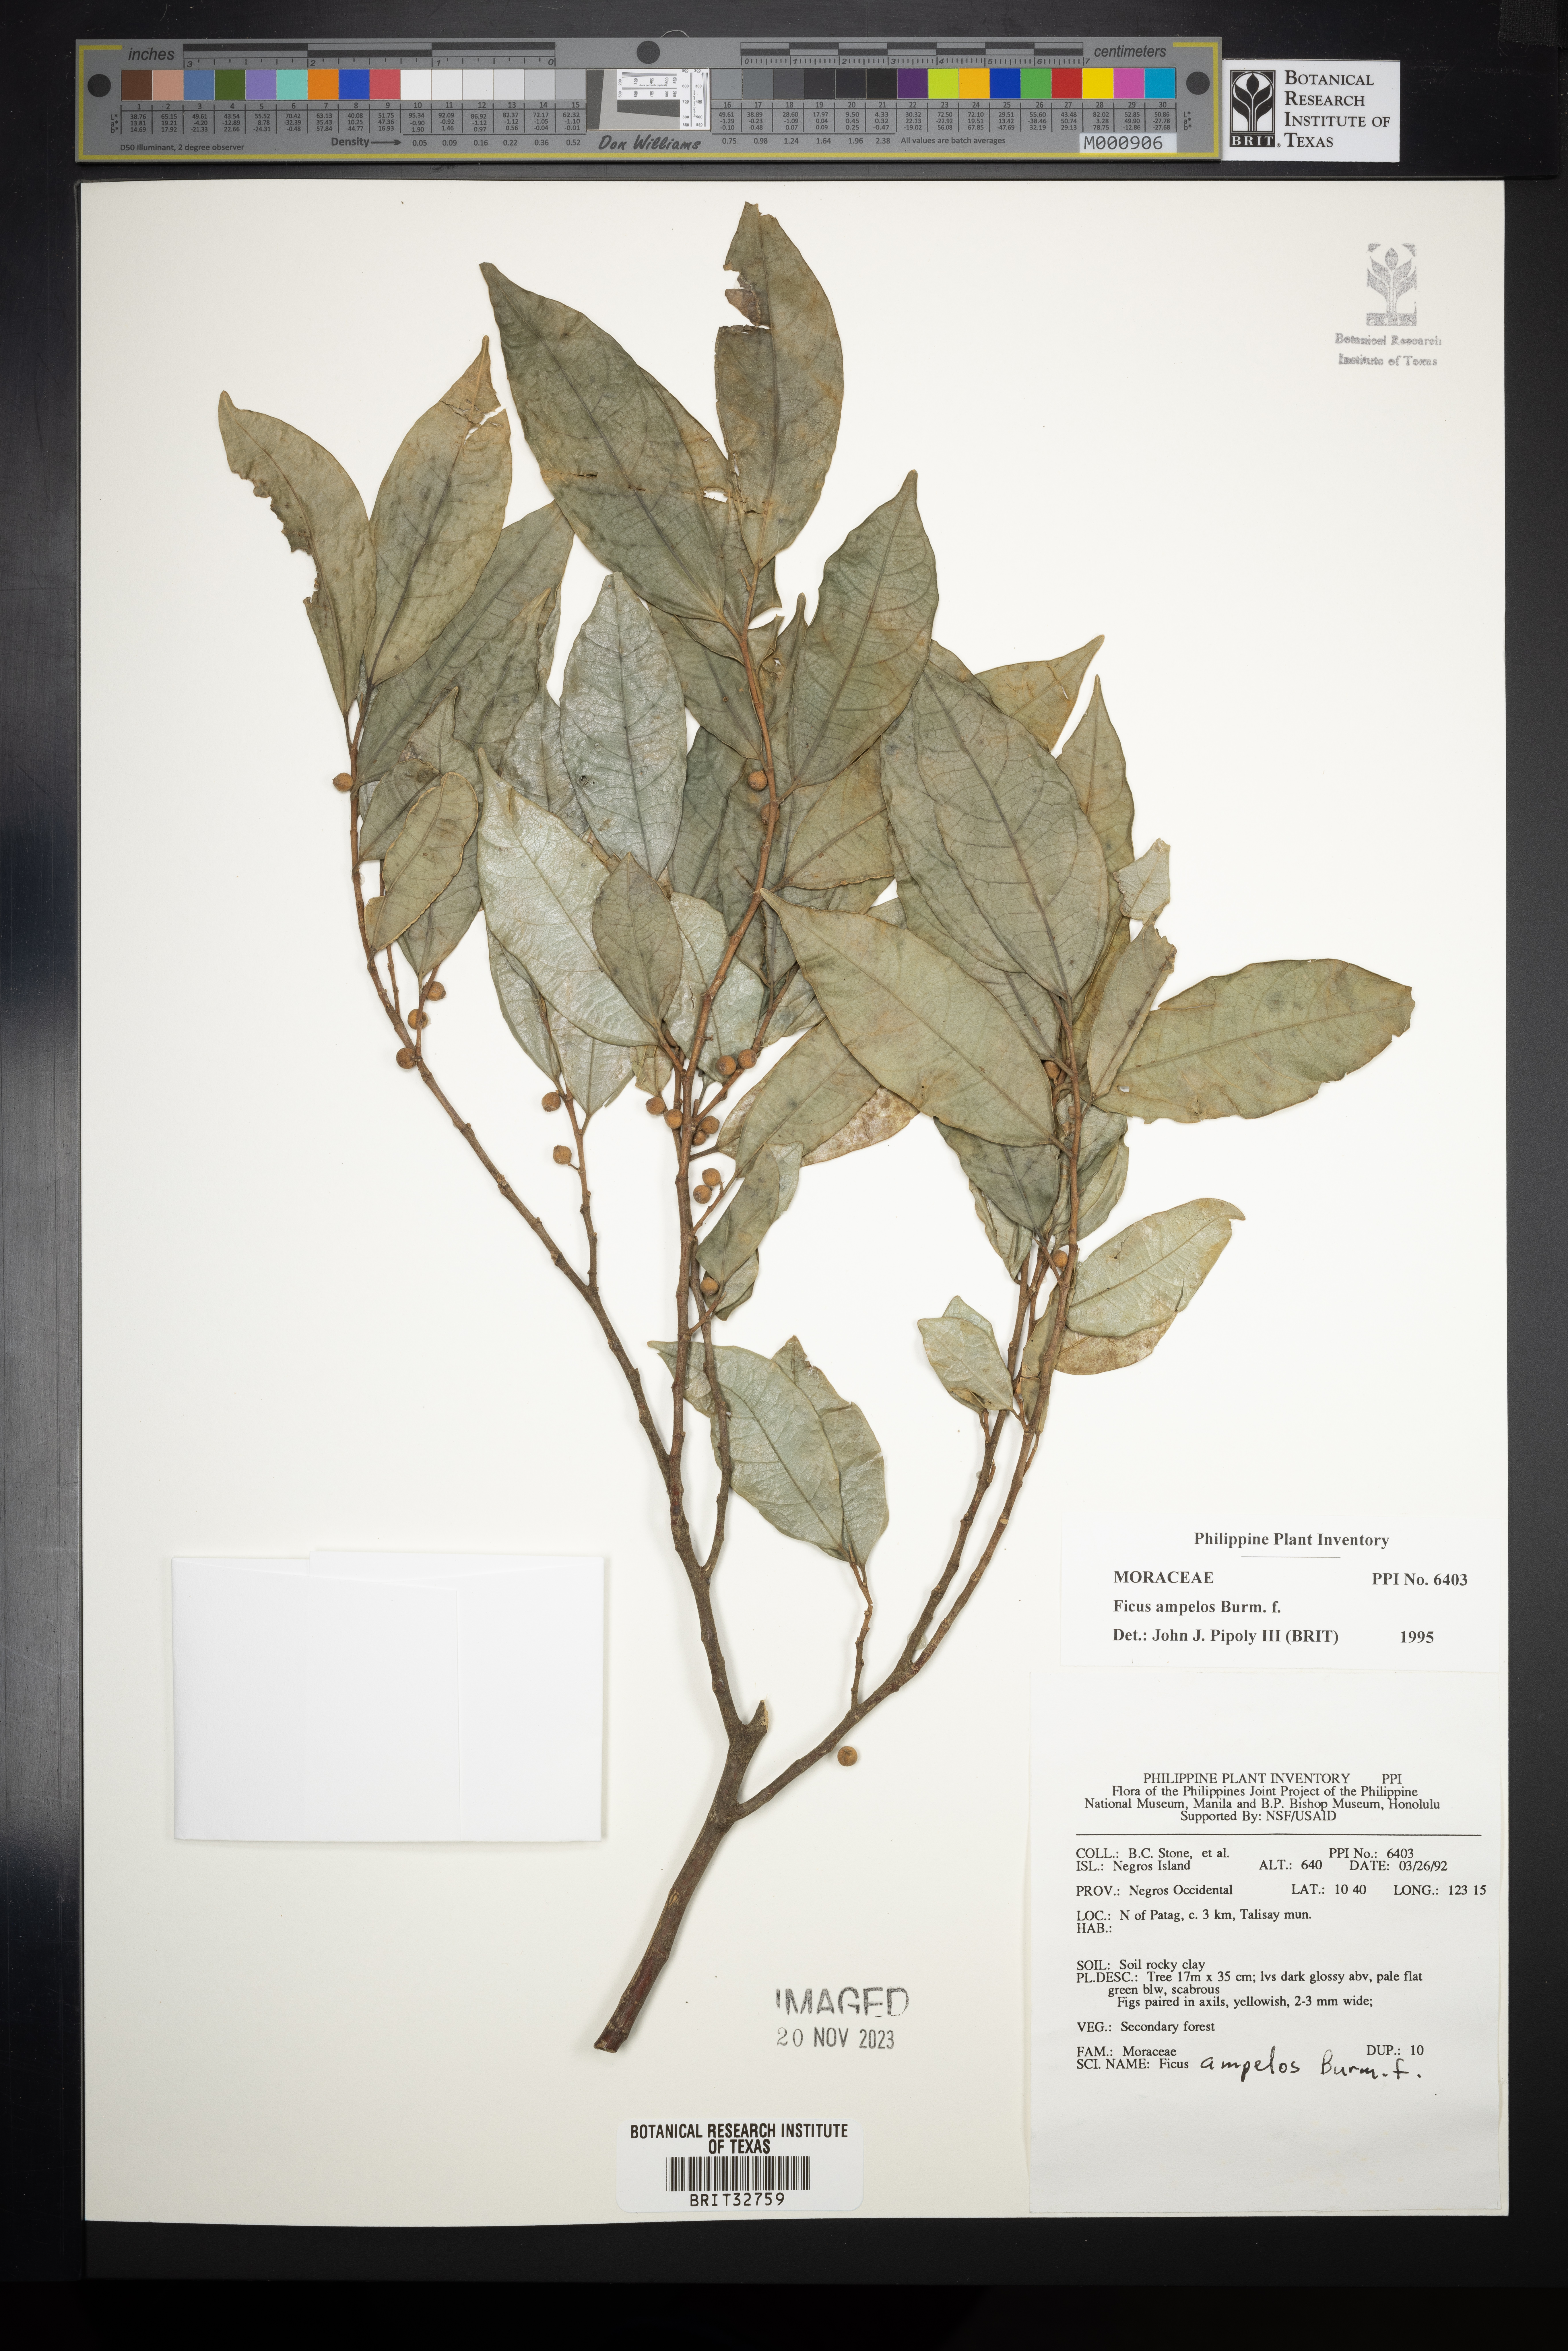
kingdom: Plantae
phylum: Tracheophyta
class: Magnoliopsida
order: Rosales
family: Moraceae
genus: Ficus
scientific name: Ficus ampelos
